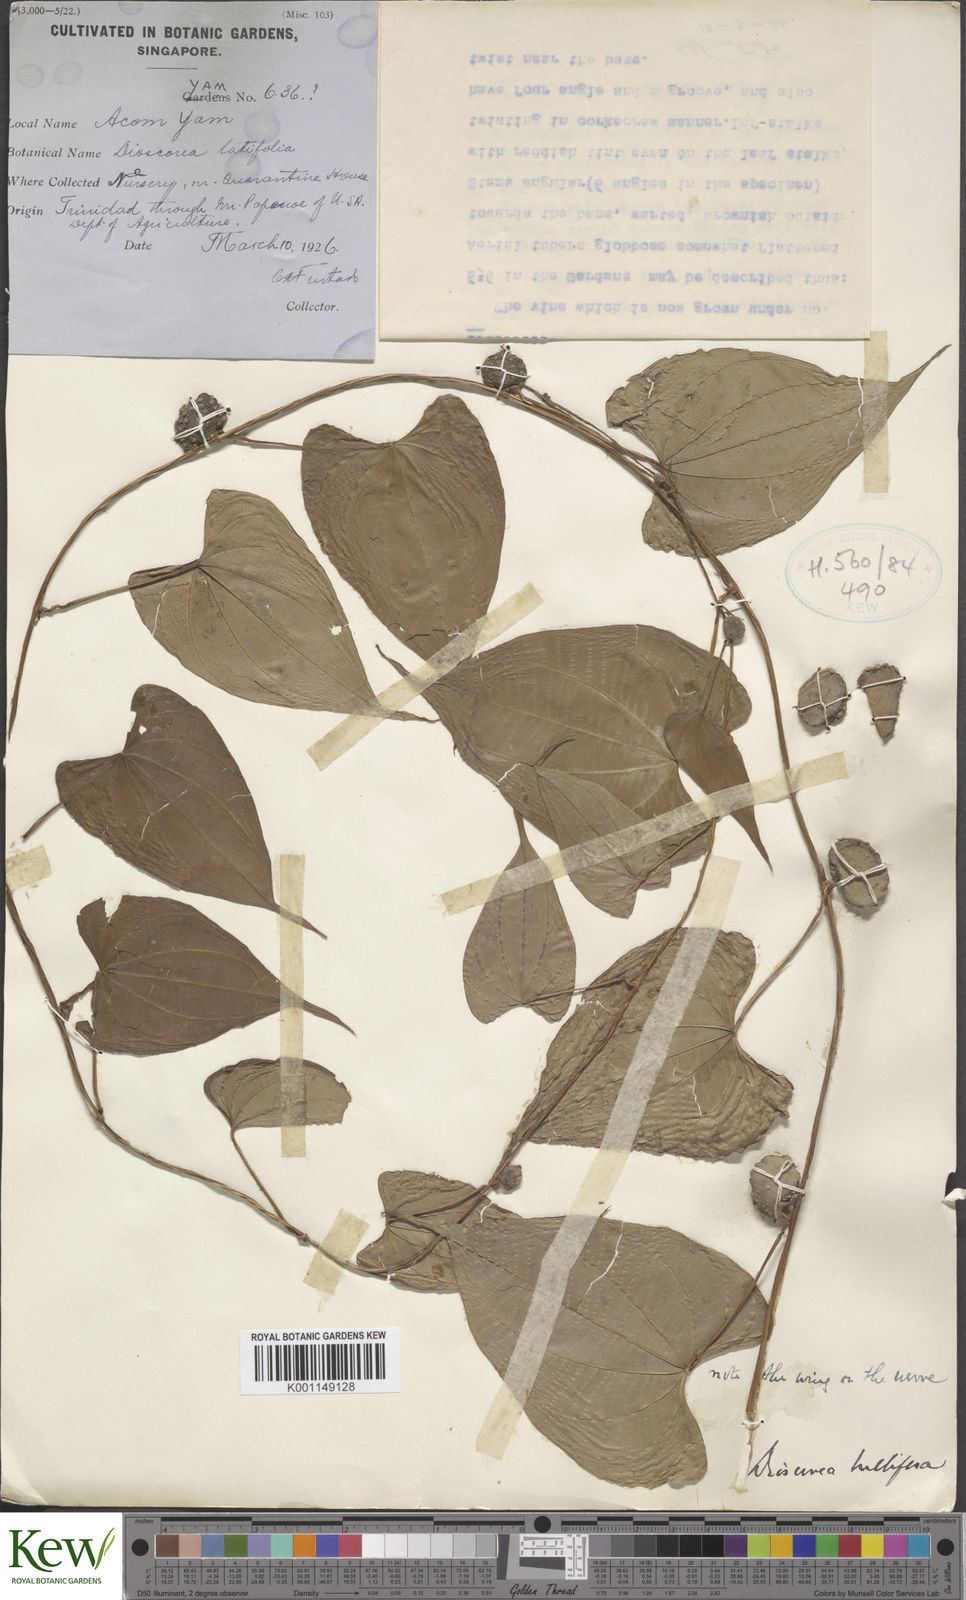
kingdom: Plantae
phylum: Tracheophyta
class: Liliopsida
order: Dioscoreales
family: Dioscoreaceae
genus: Dioscorea
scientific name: Dioscorea bulbifera
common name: Air yam
